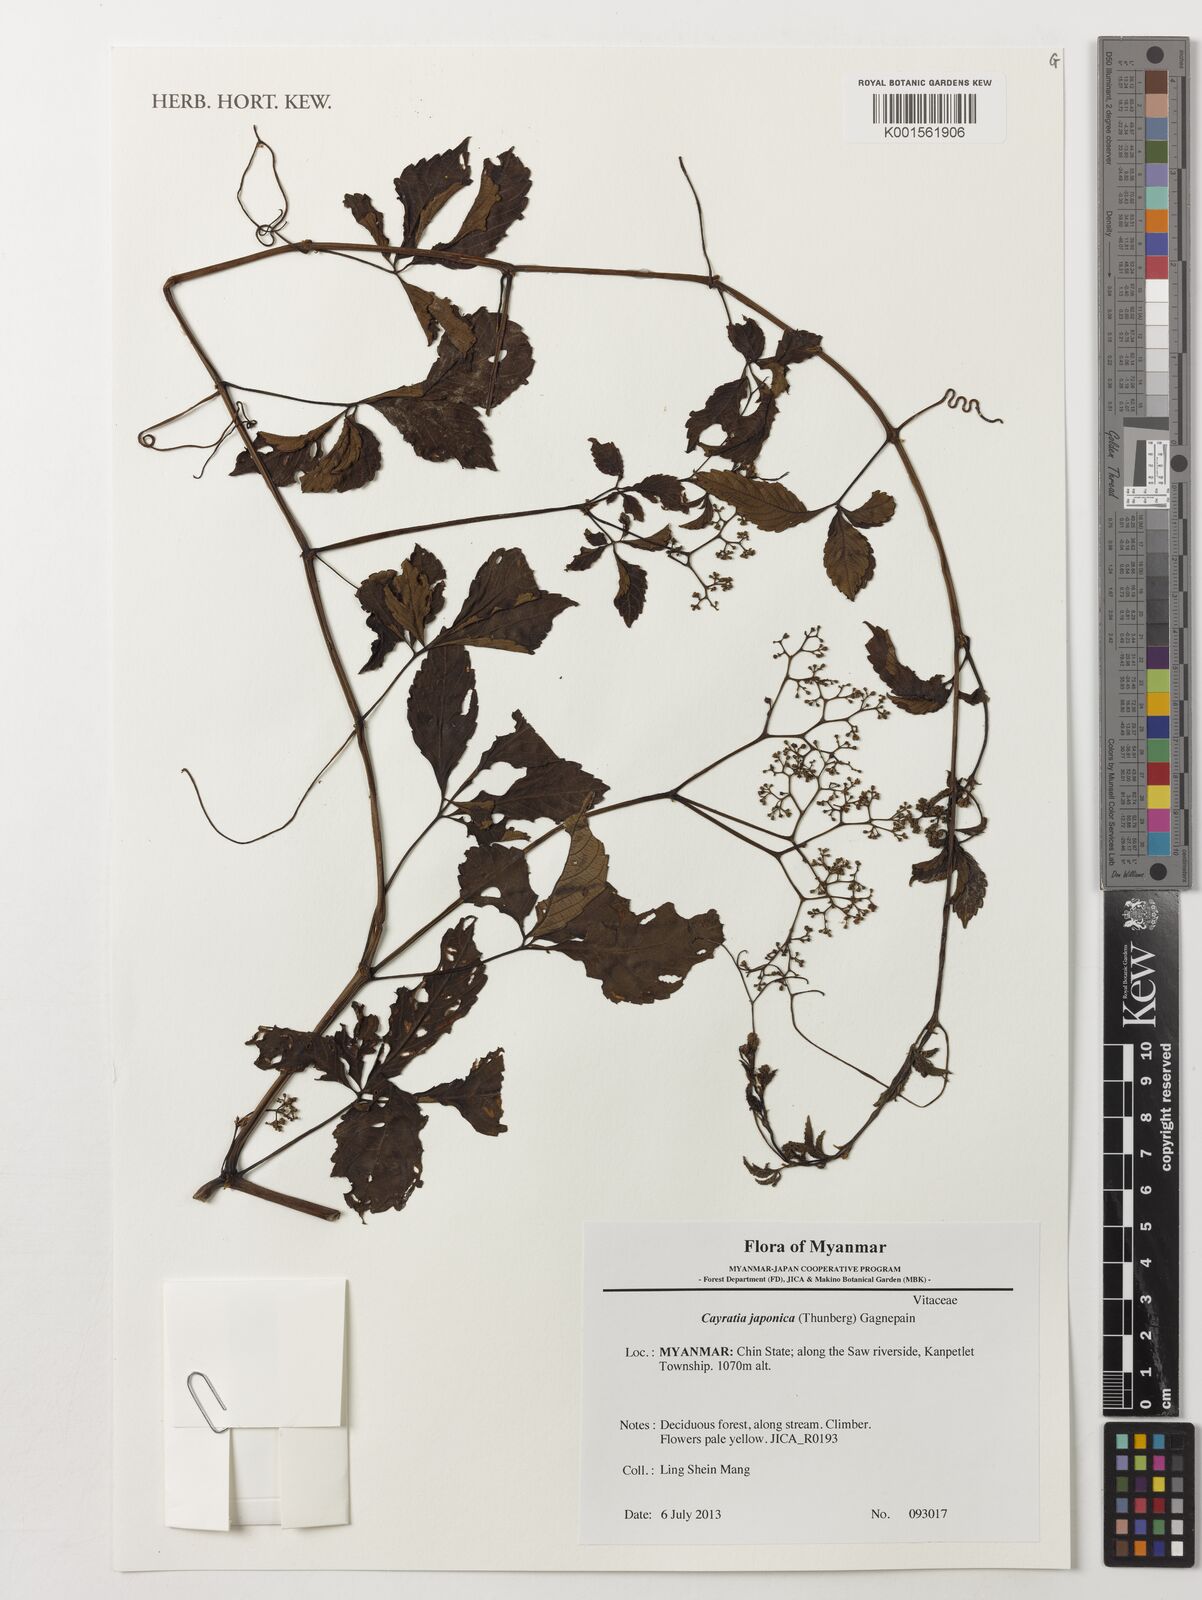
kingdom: Plantae
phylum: Tracheophyta
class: Magnoliopsida
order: Vitales
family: Vitaceae
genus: Causonis
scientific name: Causonis japonica
